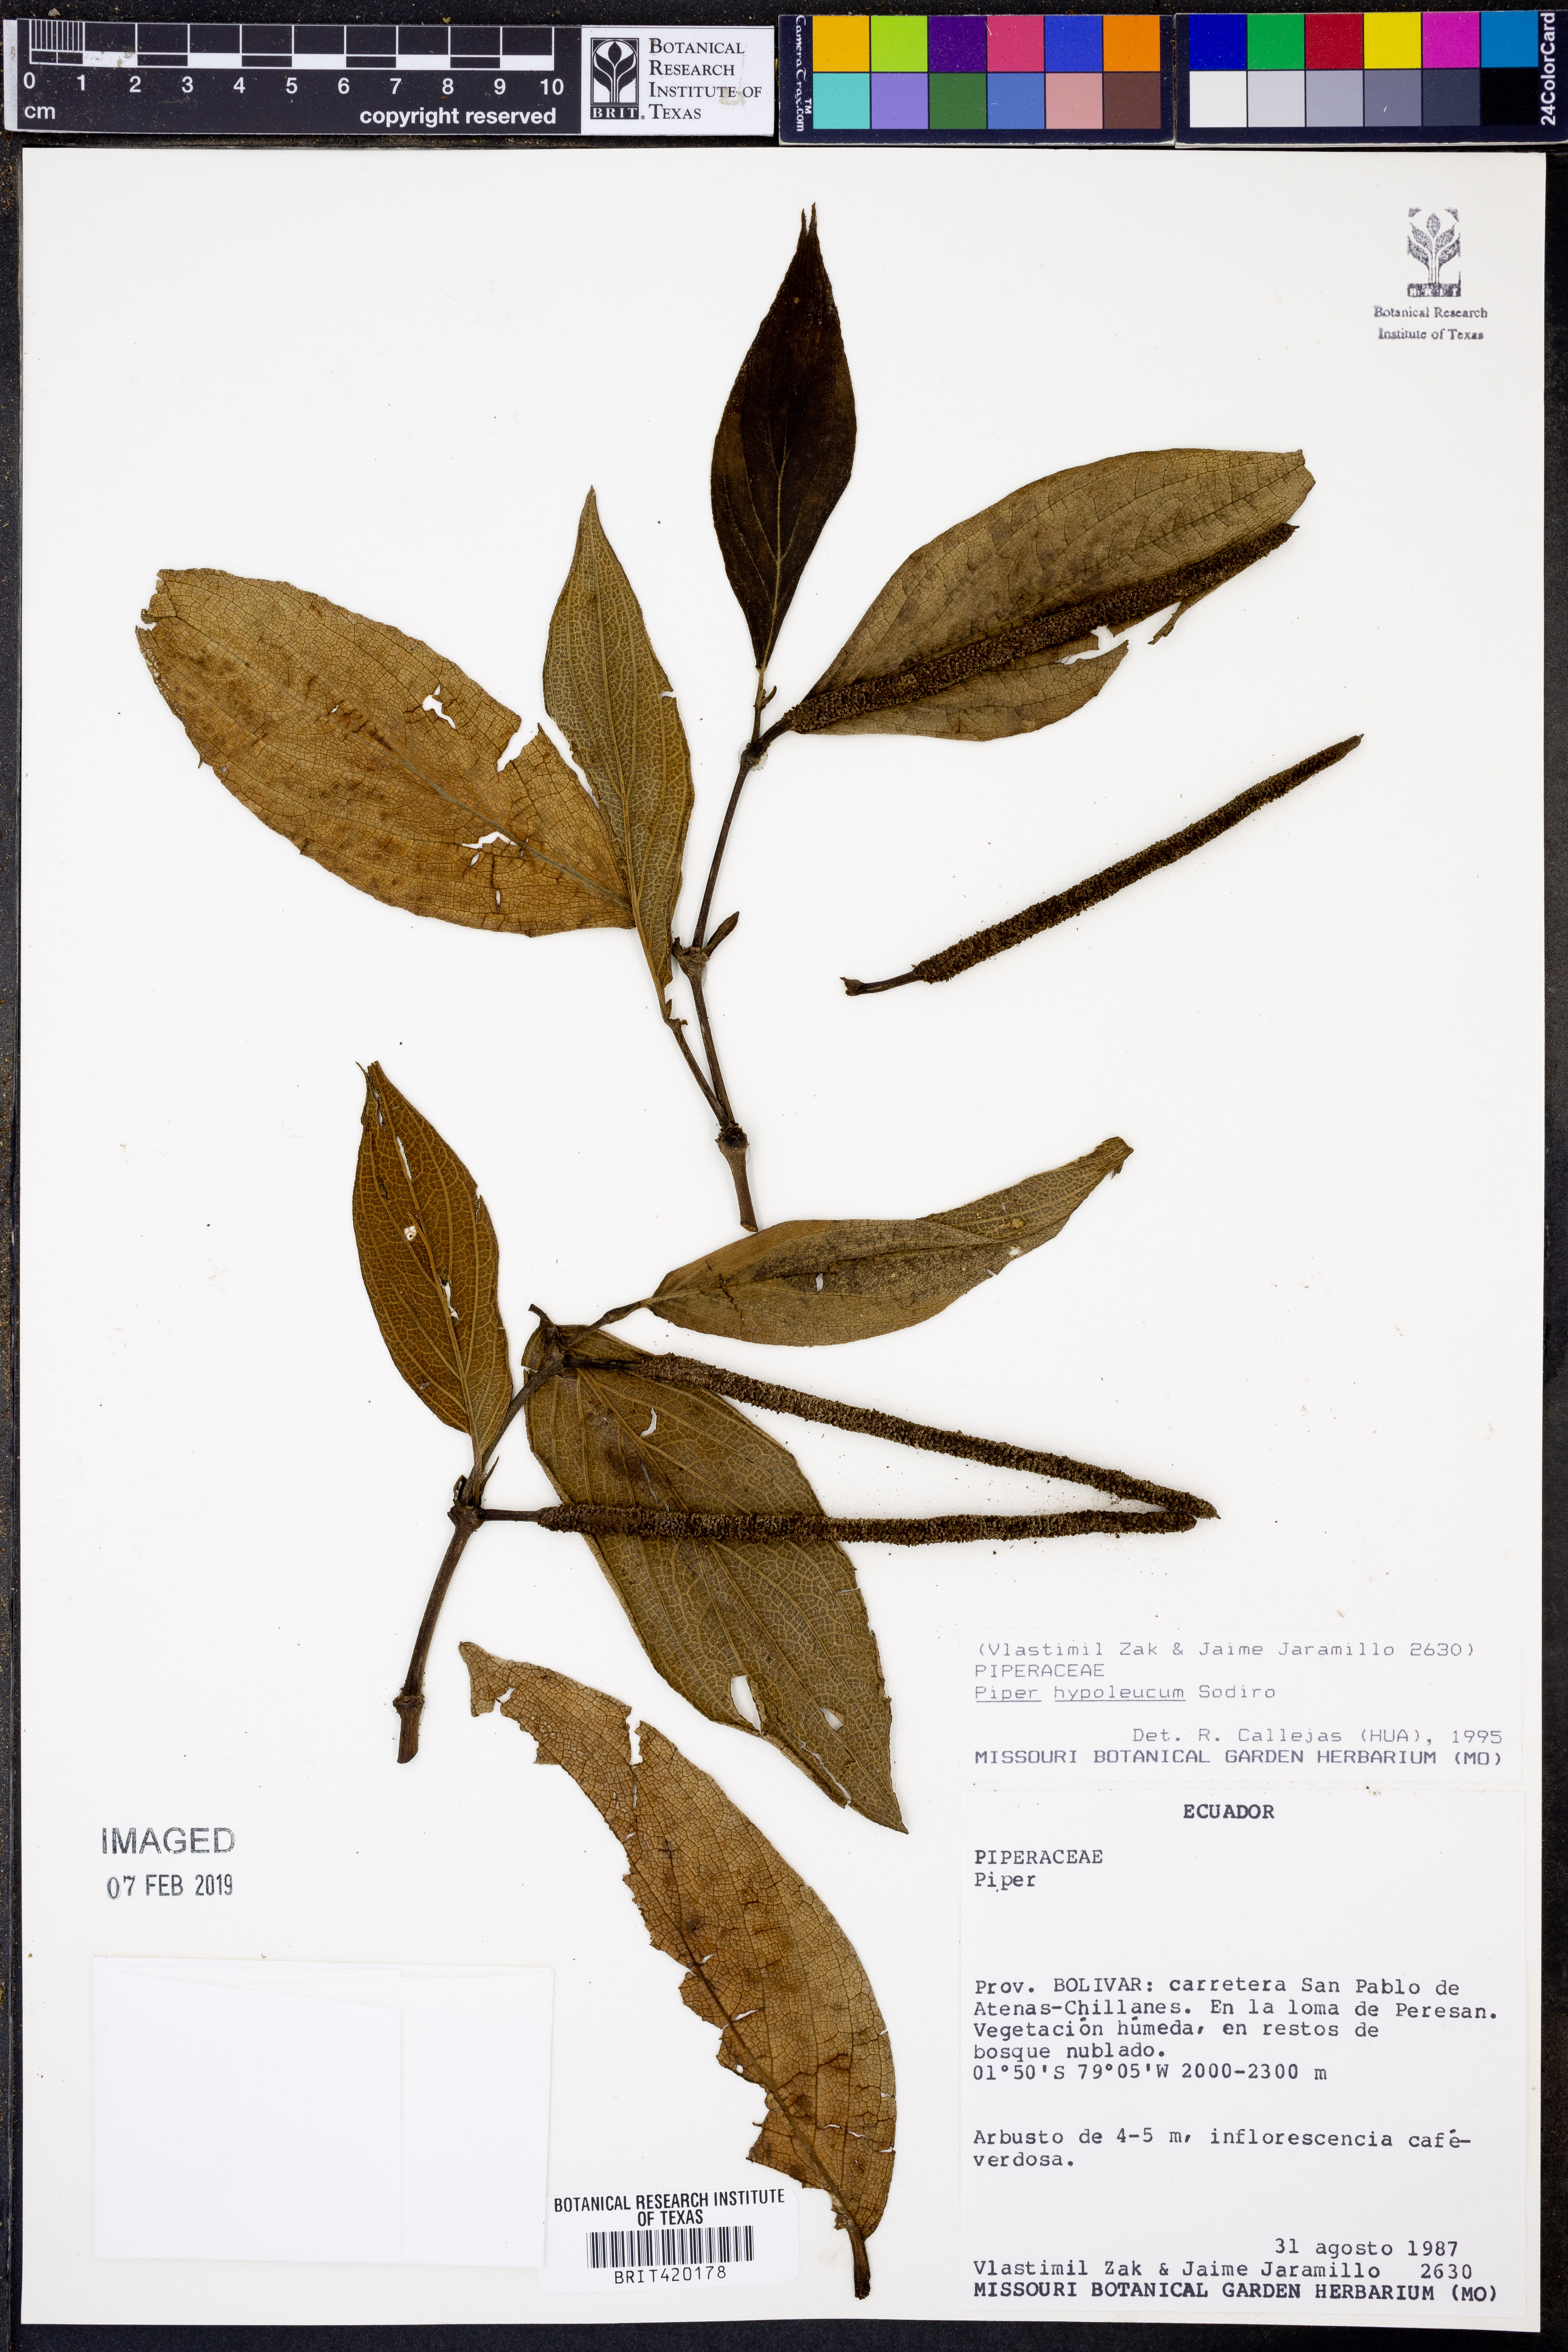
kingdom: Plantae
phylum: Tracheophyta
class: Magnoliopsida
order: Piperales
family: Piperaceae
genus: Piper
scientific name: Piper hypoleucum
